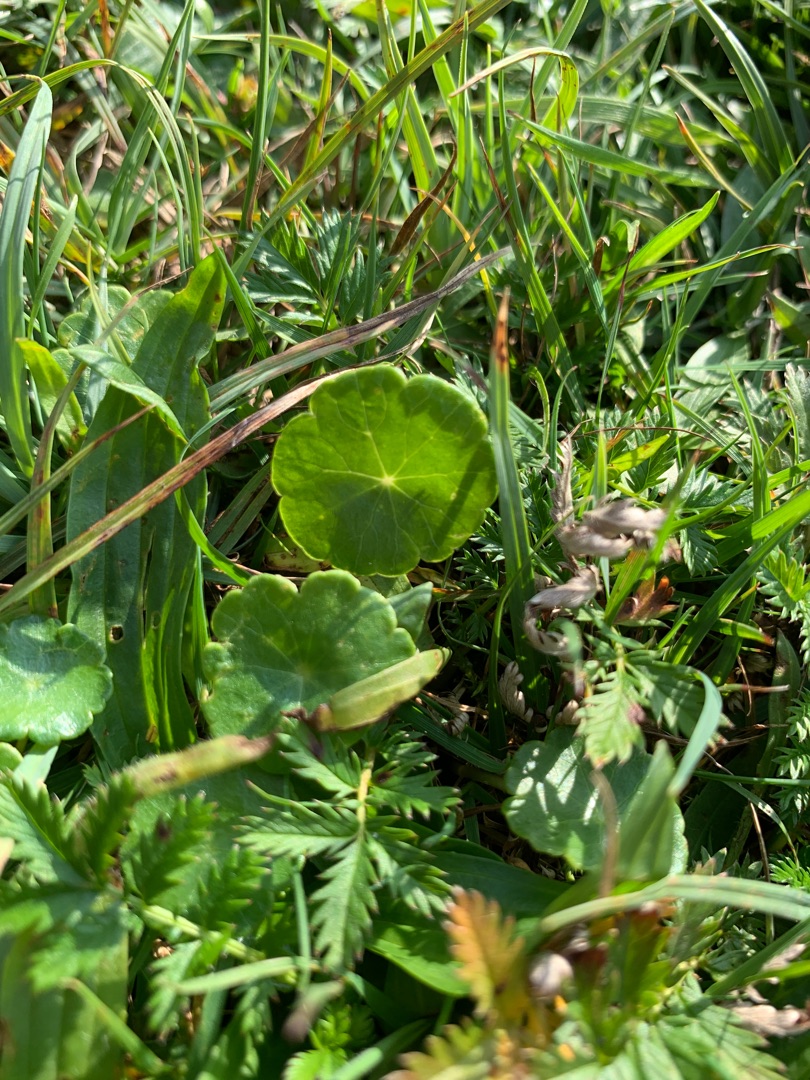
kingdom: Plantae
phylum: Tracheophyta
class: Magnoliopsida
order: Apiales
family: Araliaceae
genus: Hydrocotyle
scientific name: Hydrocotyle vulgaris
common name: Vandnavle
